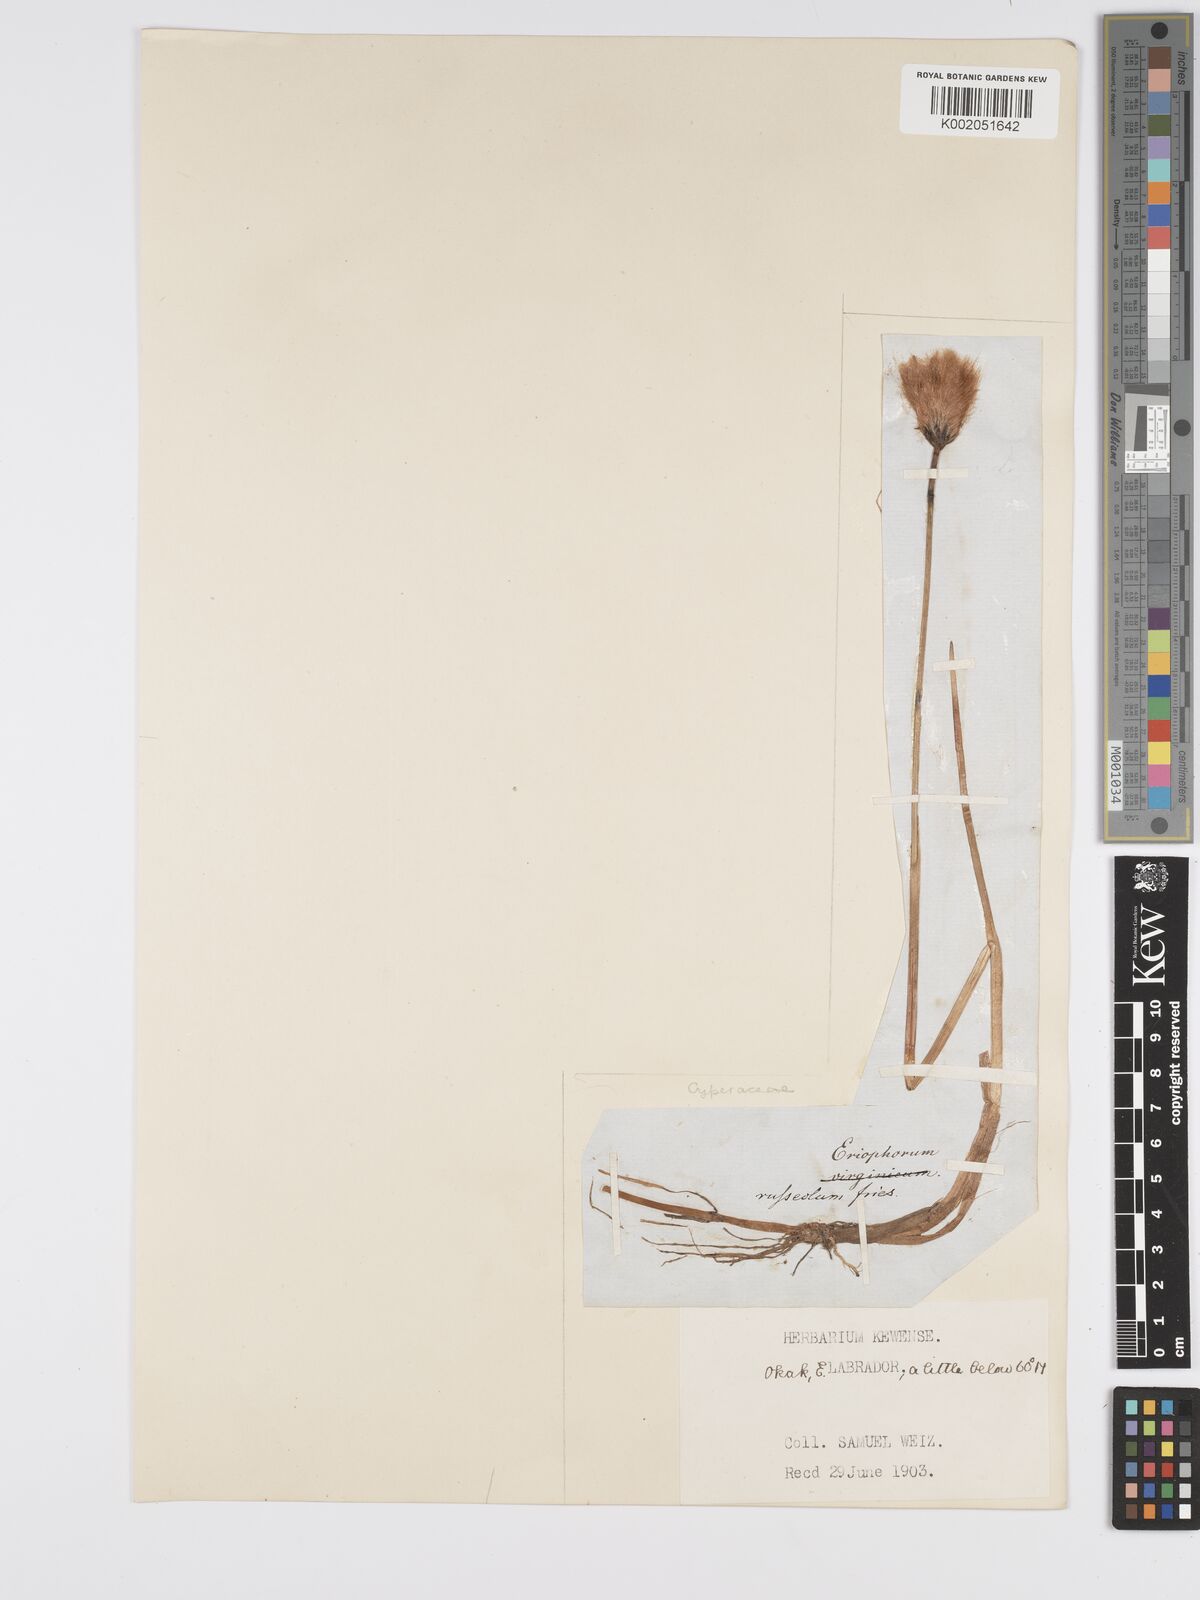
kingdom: Plantae
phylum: Tracheophyta
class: Liliopsida
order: Poales
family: Cyperaceae
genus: Eriophorum
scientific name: Eriophorum chamissonis
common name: Chamisso's cottongrass
